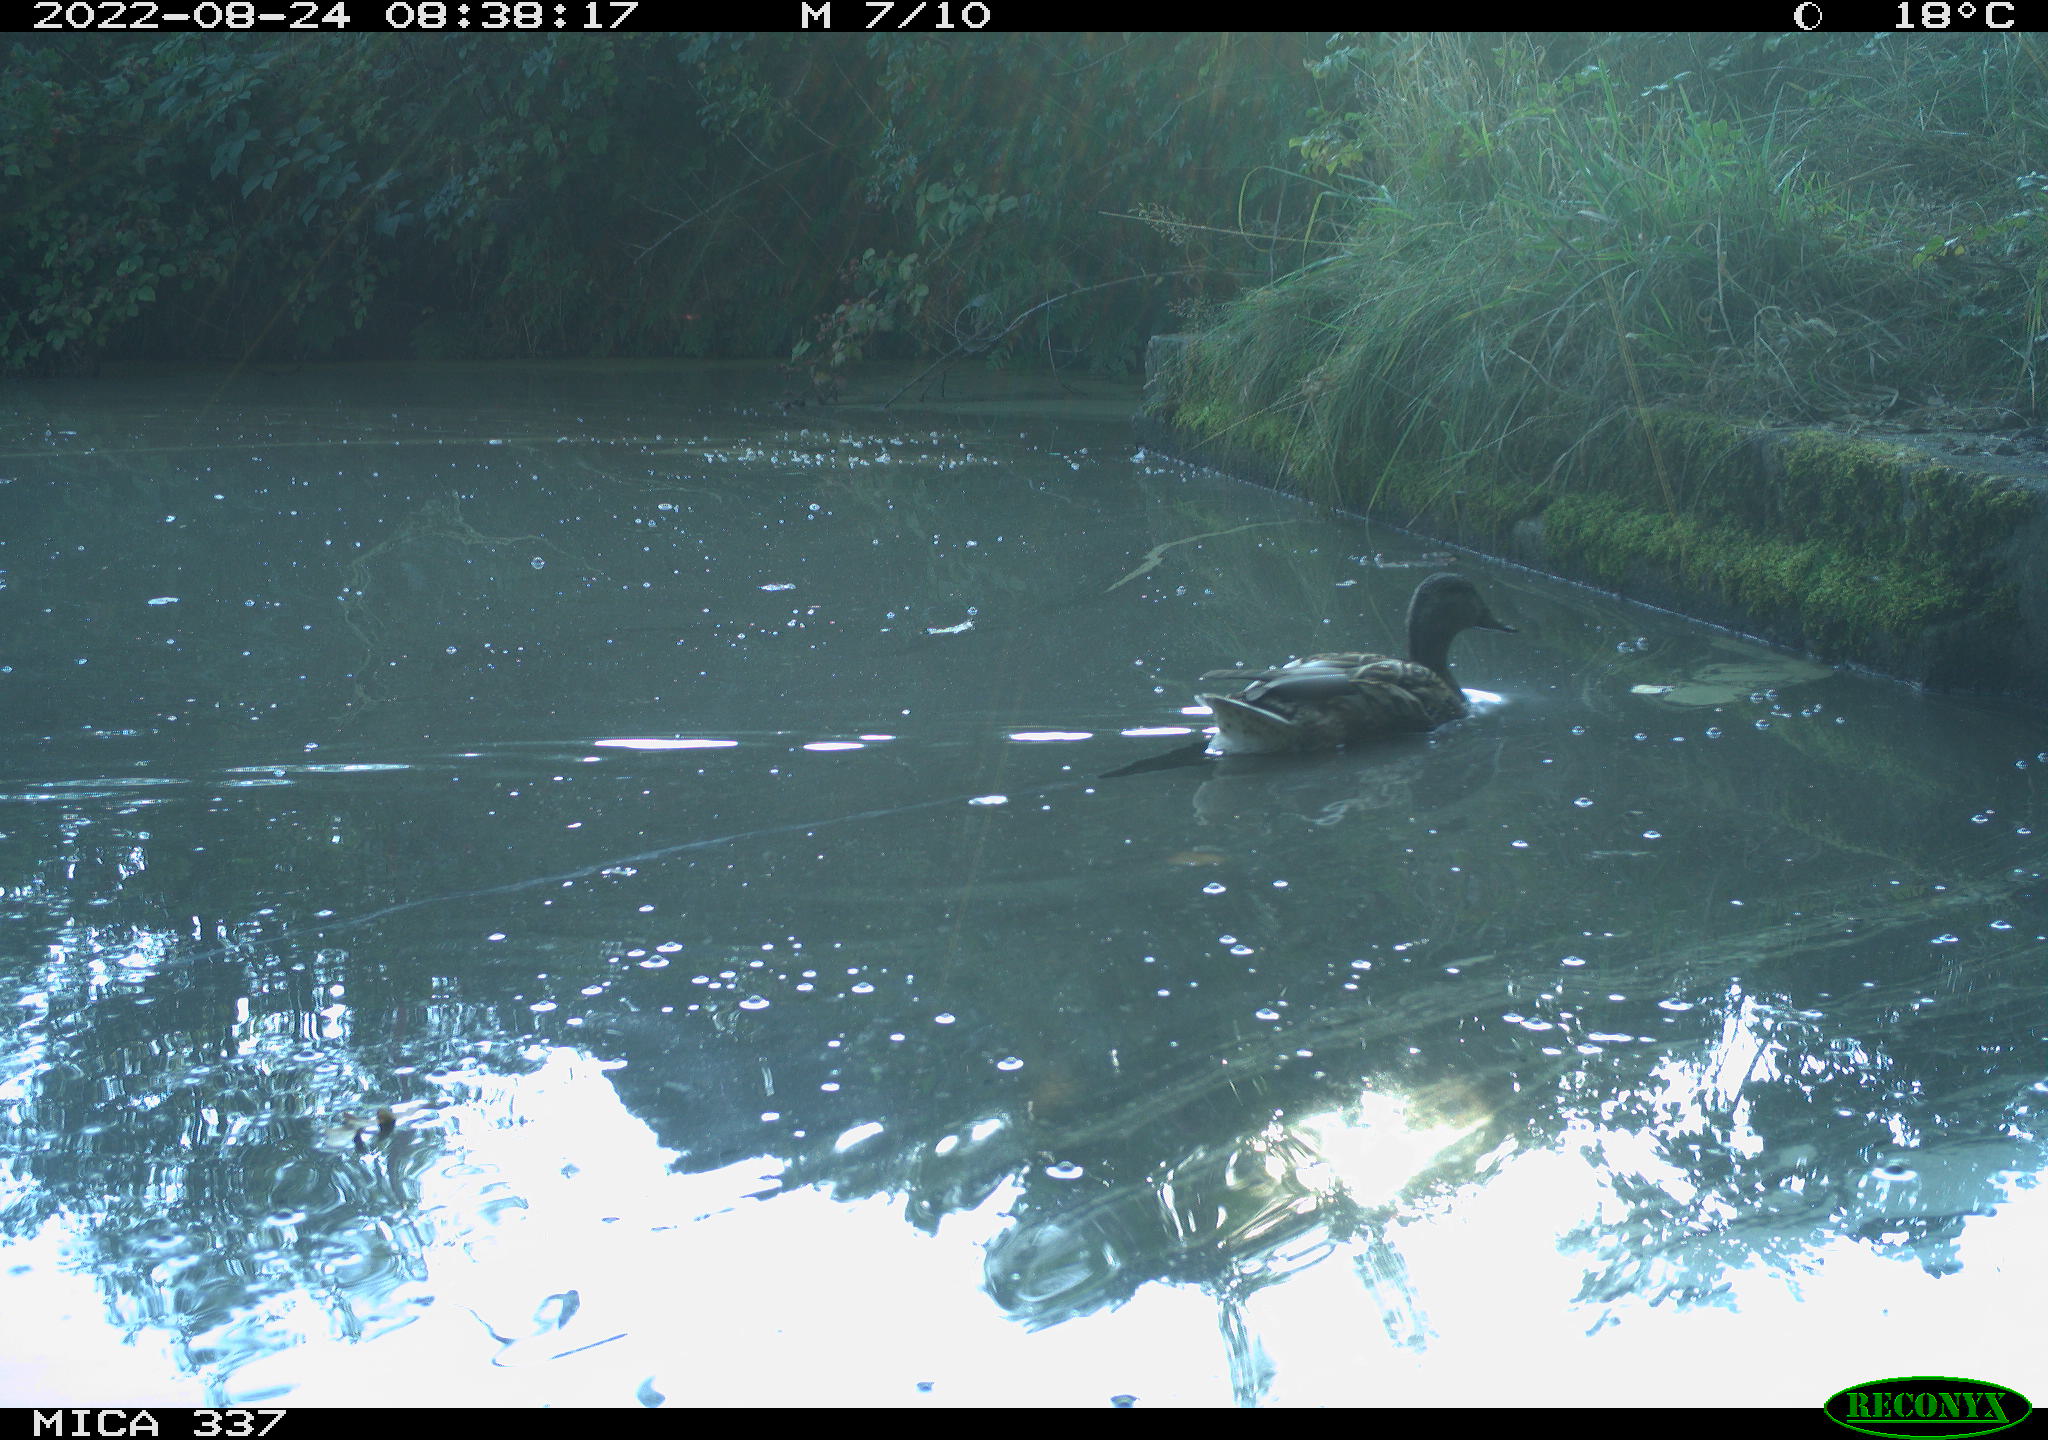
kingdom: Animalia
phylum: Chordata
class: Aves
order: Anseriformes
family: Anatidae
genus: Anas
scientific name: Anas platyrhynchos
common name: Mallard
